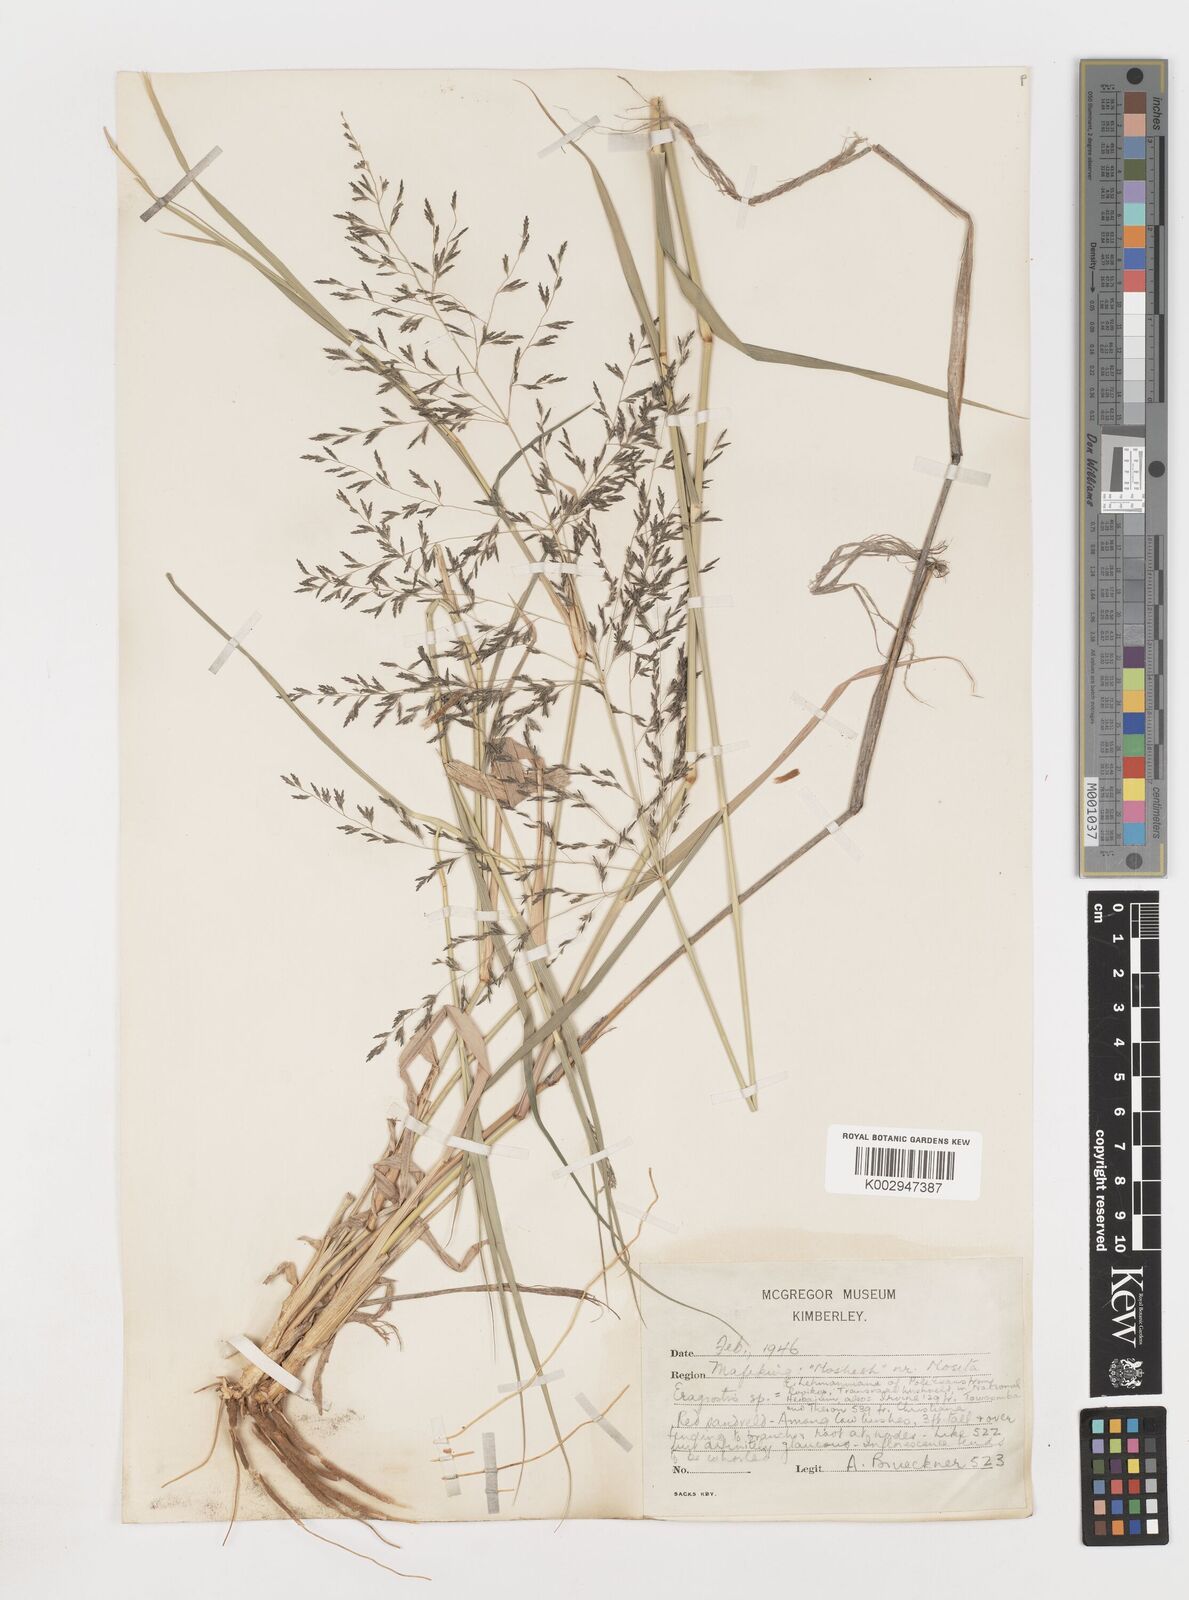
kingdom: Plantae
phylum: Tracheophyta
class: Liliopsida
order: Poales
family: Poaceae
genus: Eragrostis
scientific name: Eragrostis
